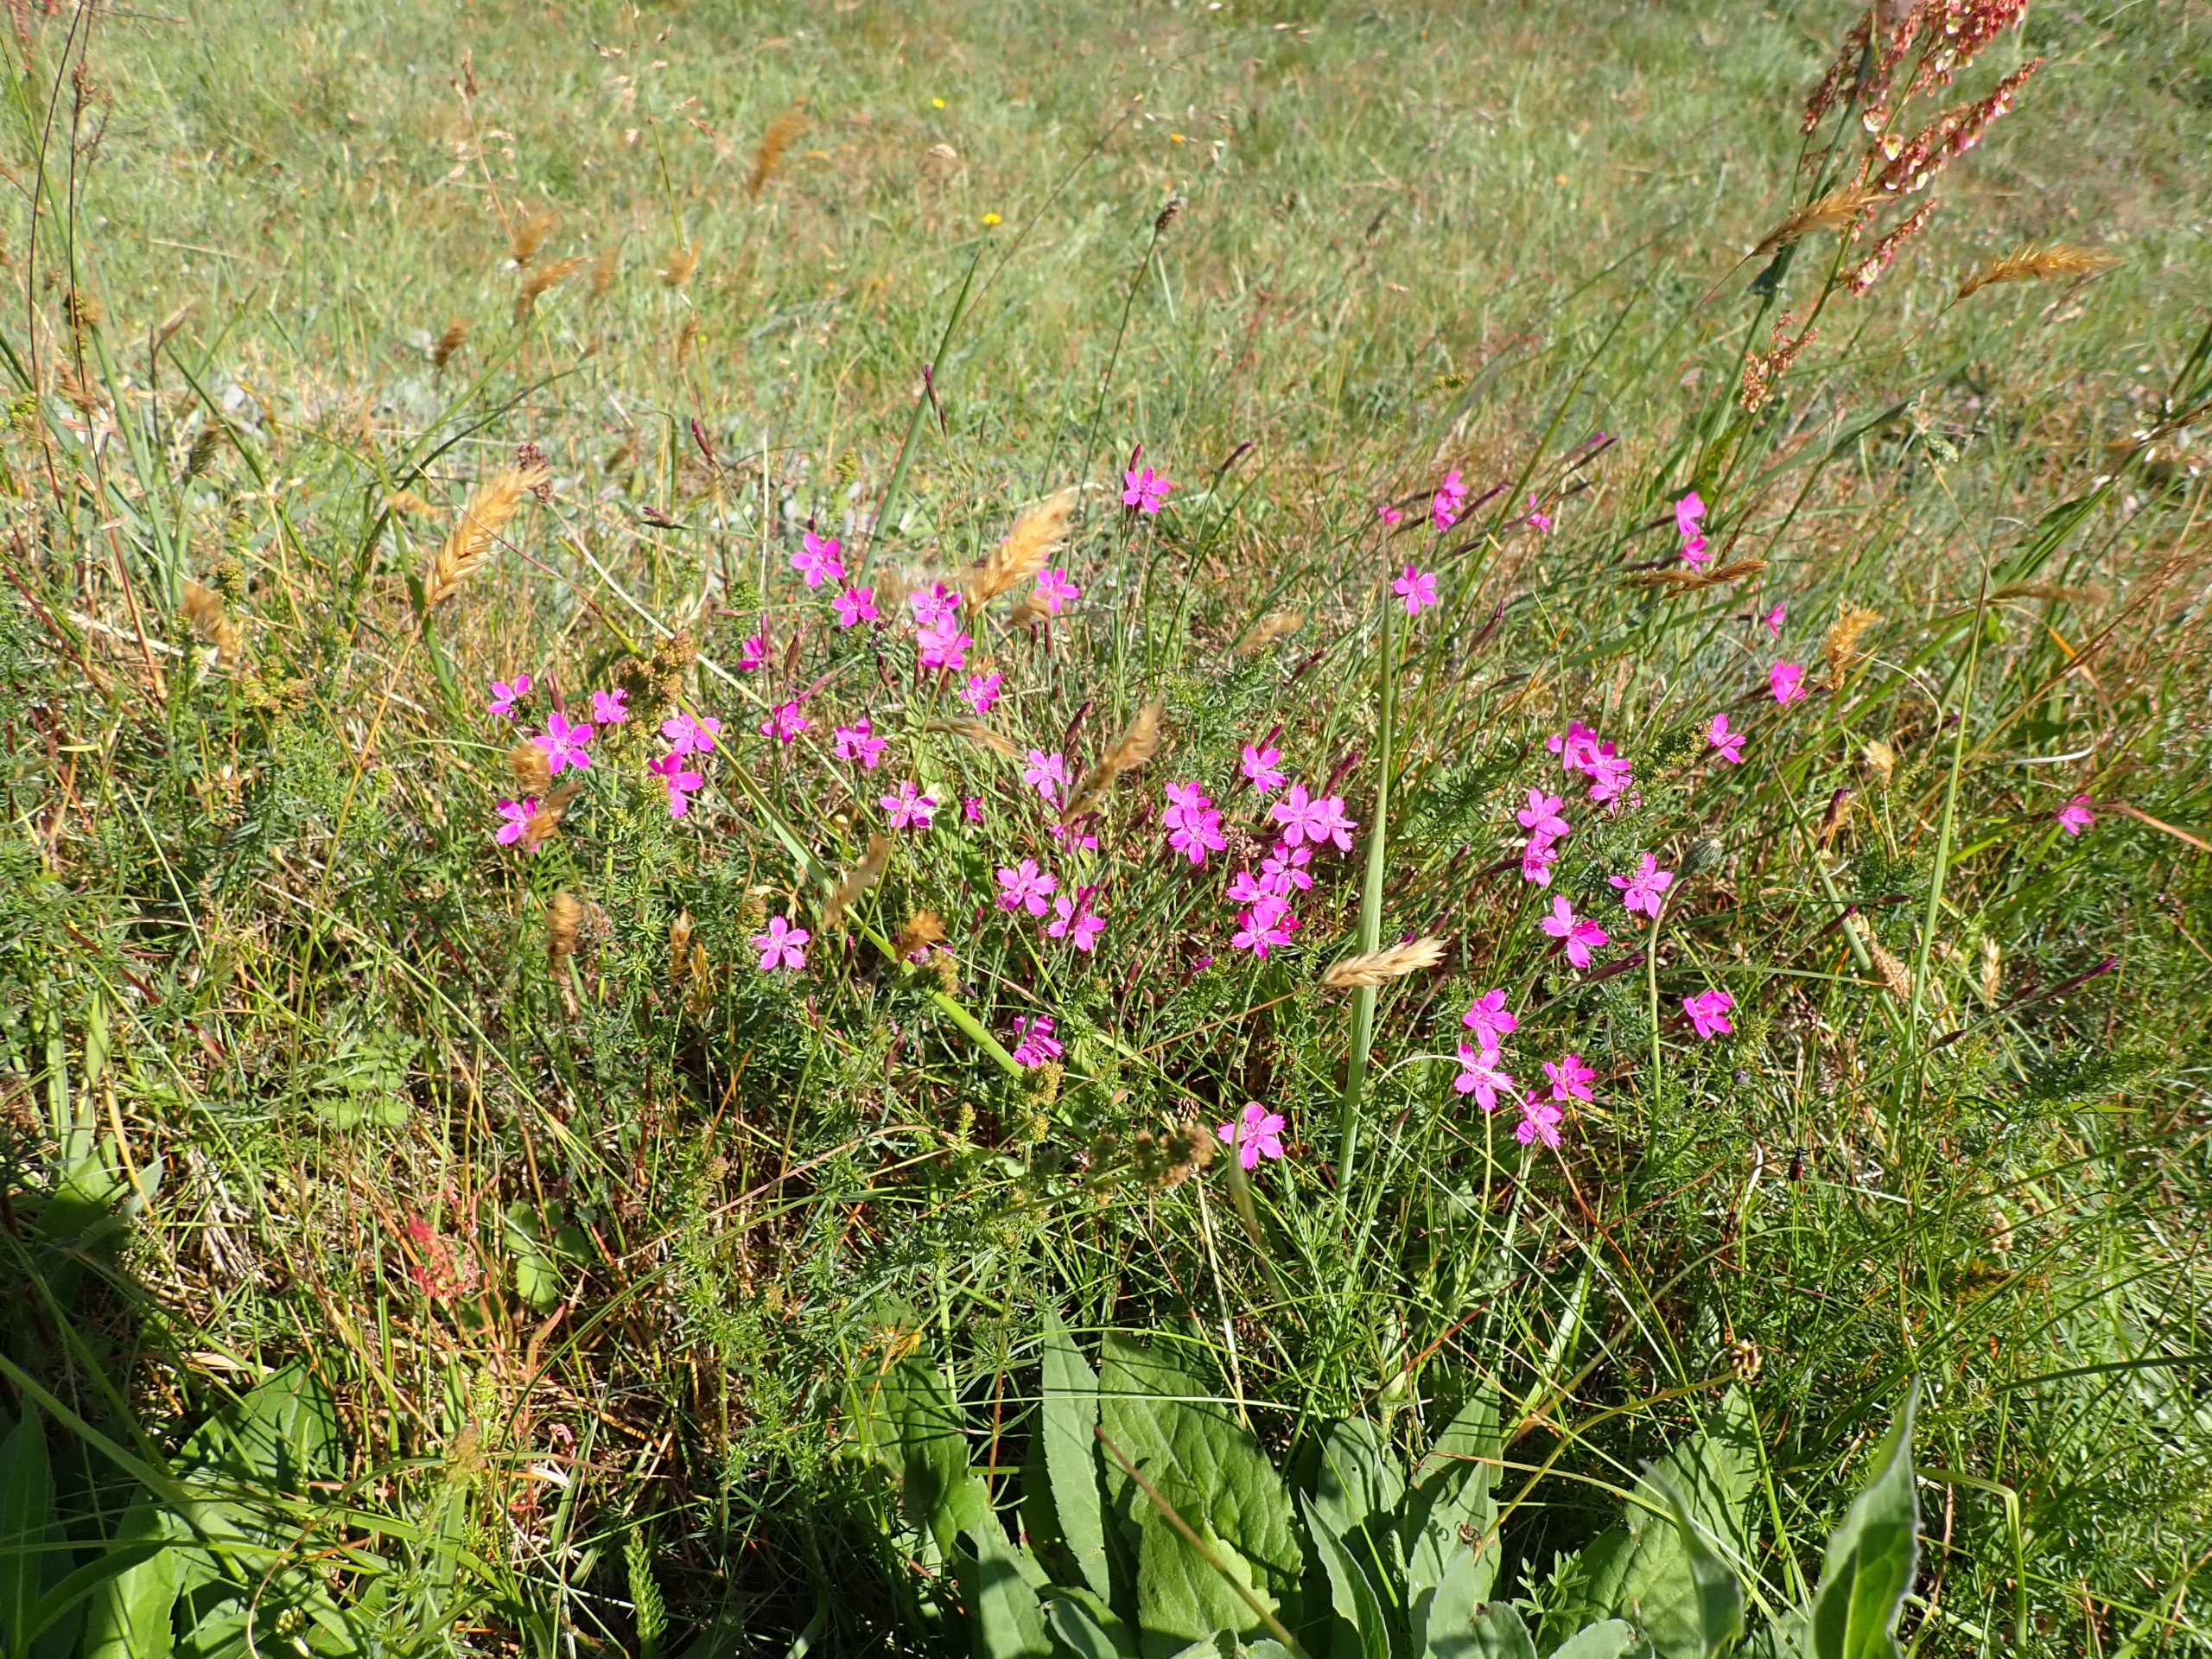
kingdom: Plantae
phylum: Tracheophyta
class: Magnoliopsida
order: Caryophyllales
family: Caryophyllaceae
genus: Dianthus
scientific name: Dianthus deltoides
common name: Bakke-nellike
